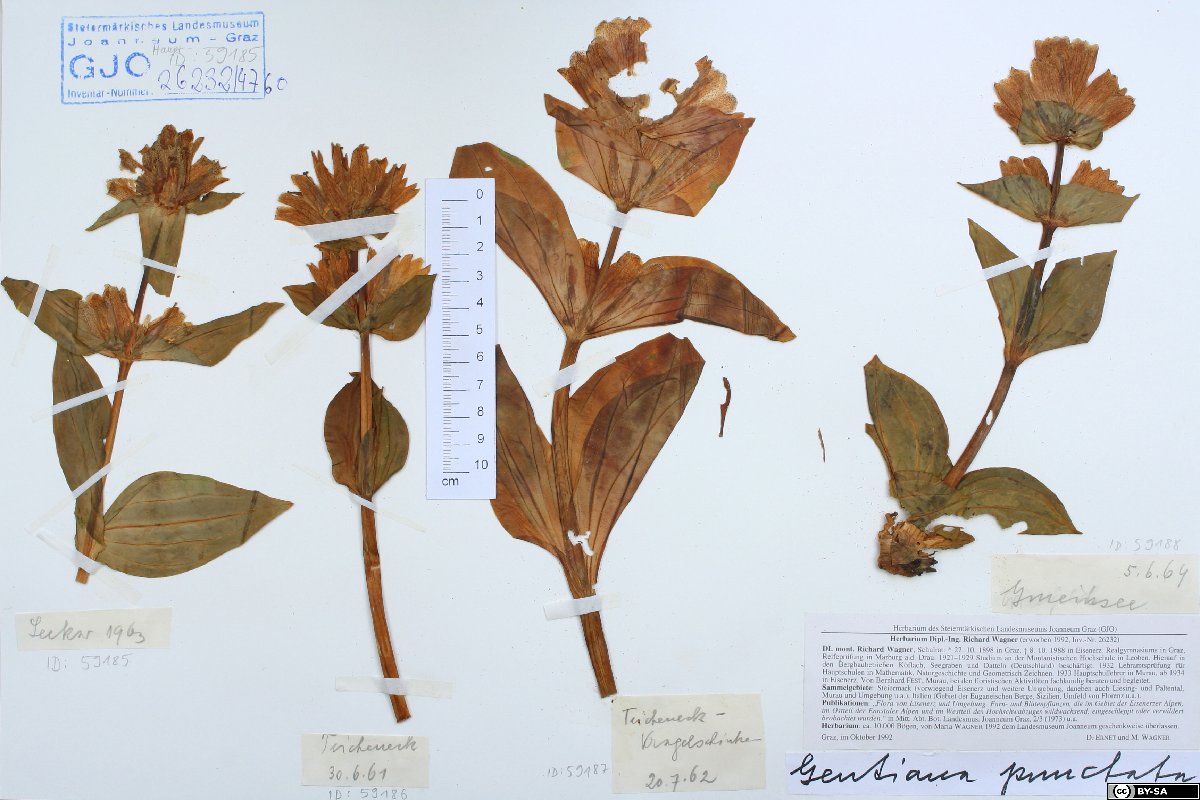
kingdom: Plantae
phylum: Tracheophyta
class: Magnoliopsida
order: Gentianales
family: Gentianaceae
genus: Gentiana
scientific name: Gentiana punctata
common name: Spotted gentian
